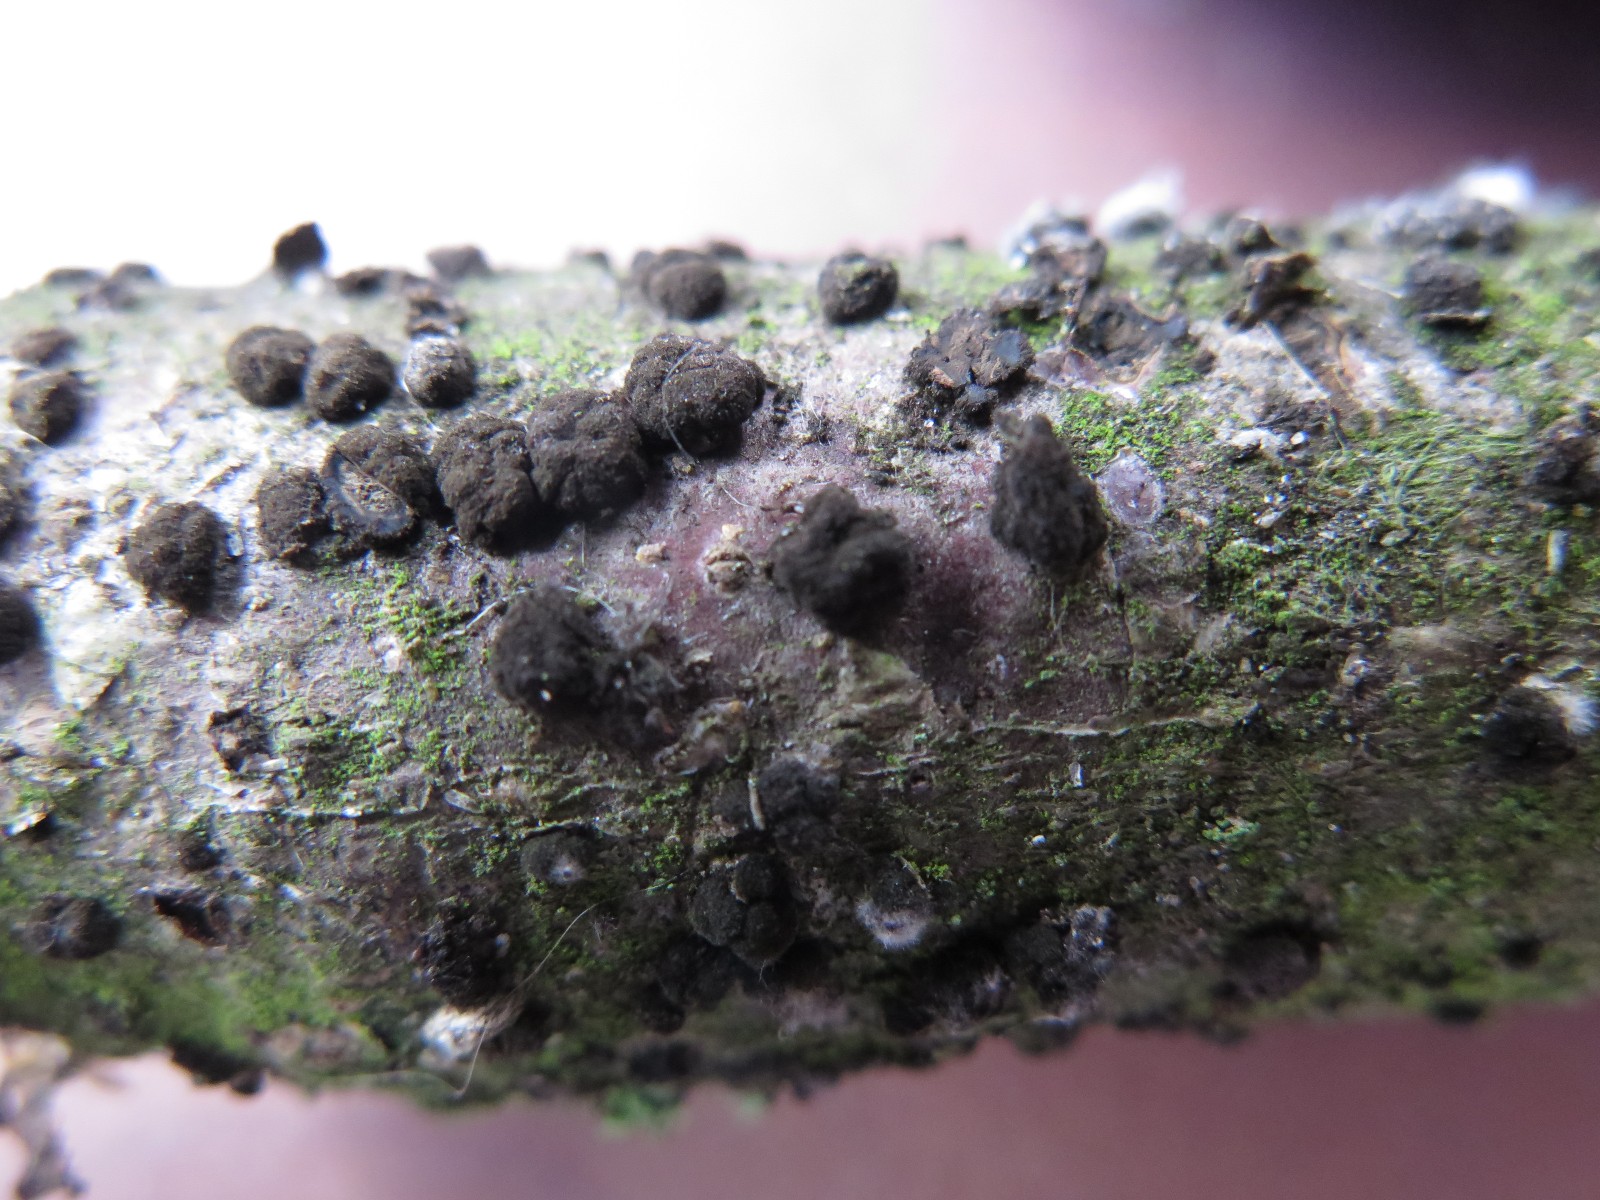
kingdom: Fungi
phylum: Ascomycota
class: Dothideomycetes
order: Pleosporales
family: Massarinaceae
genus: Helminthosporium
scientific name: Helminthosporium oligosporum
